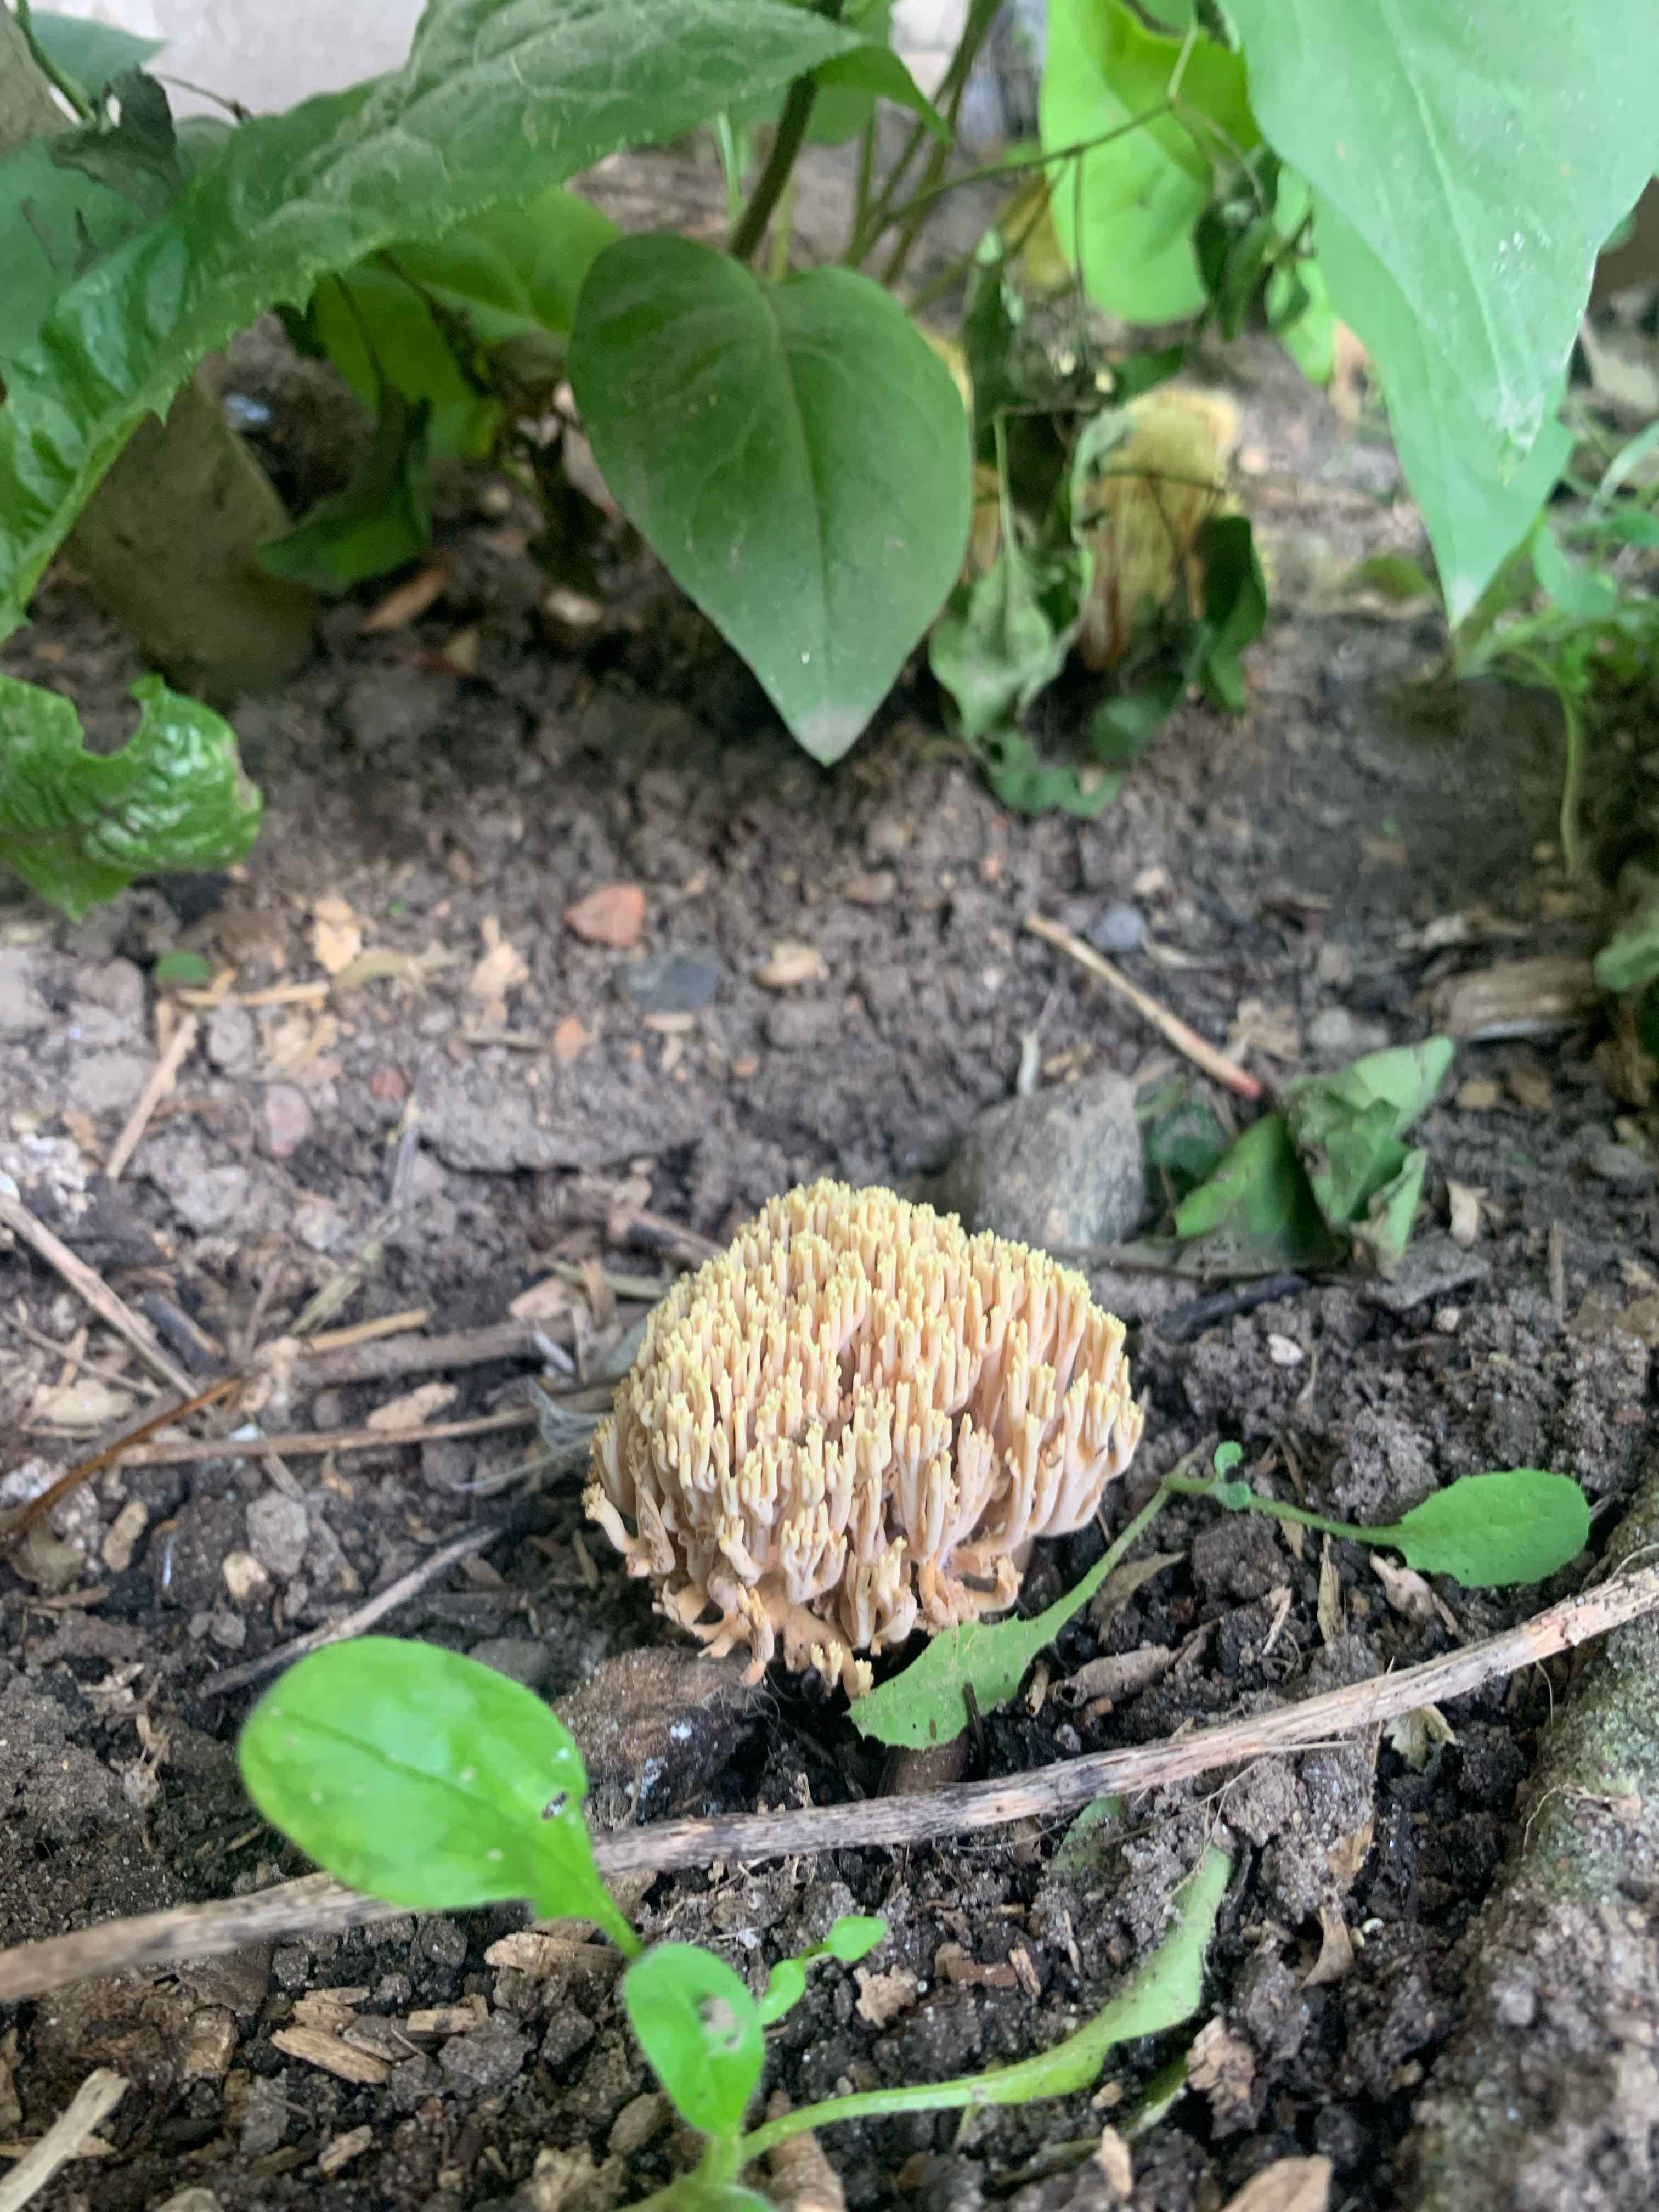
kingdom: Fungi
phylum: Basidiomycota
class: Agaricomycetes
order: Gomphales
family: Gomphaceae
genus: Ramaria
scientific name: Ramaria stricta
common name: rank koralsvamp
